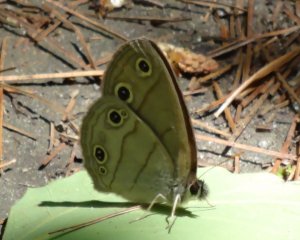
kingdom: Animalia
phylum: Arthropoda
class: Insecta
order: Lepidoptera
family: Nymphalidae
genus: Euptychia
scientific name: Euptychia cymela
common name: Little Wood Satyr
